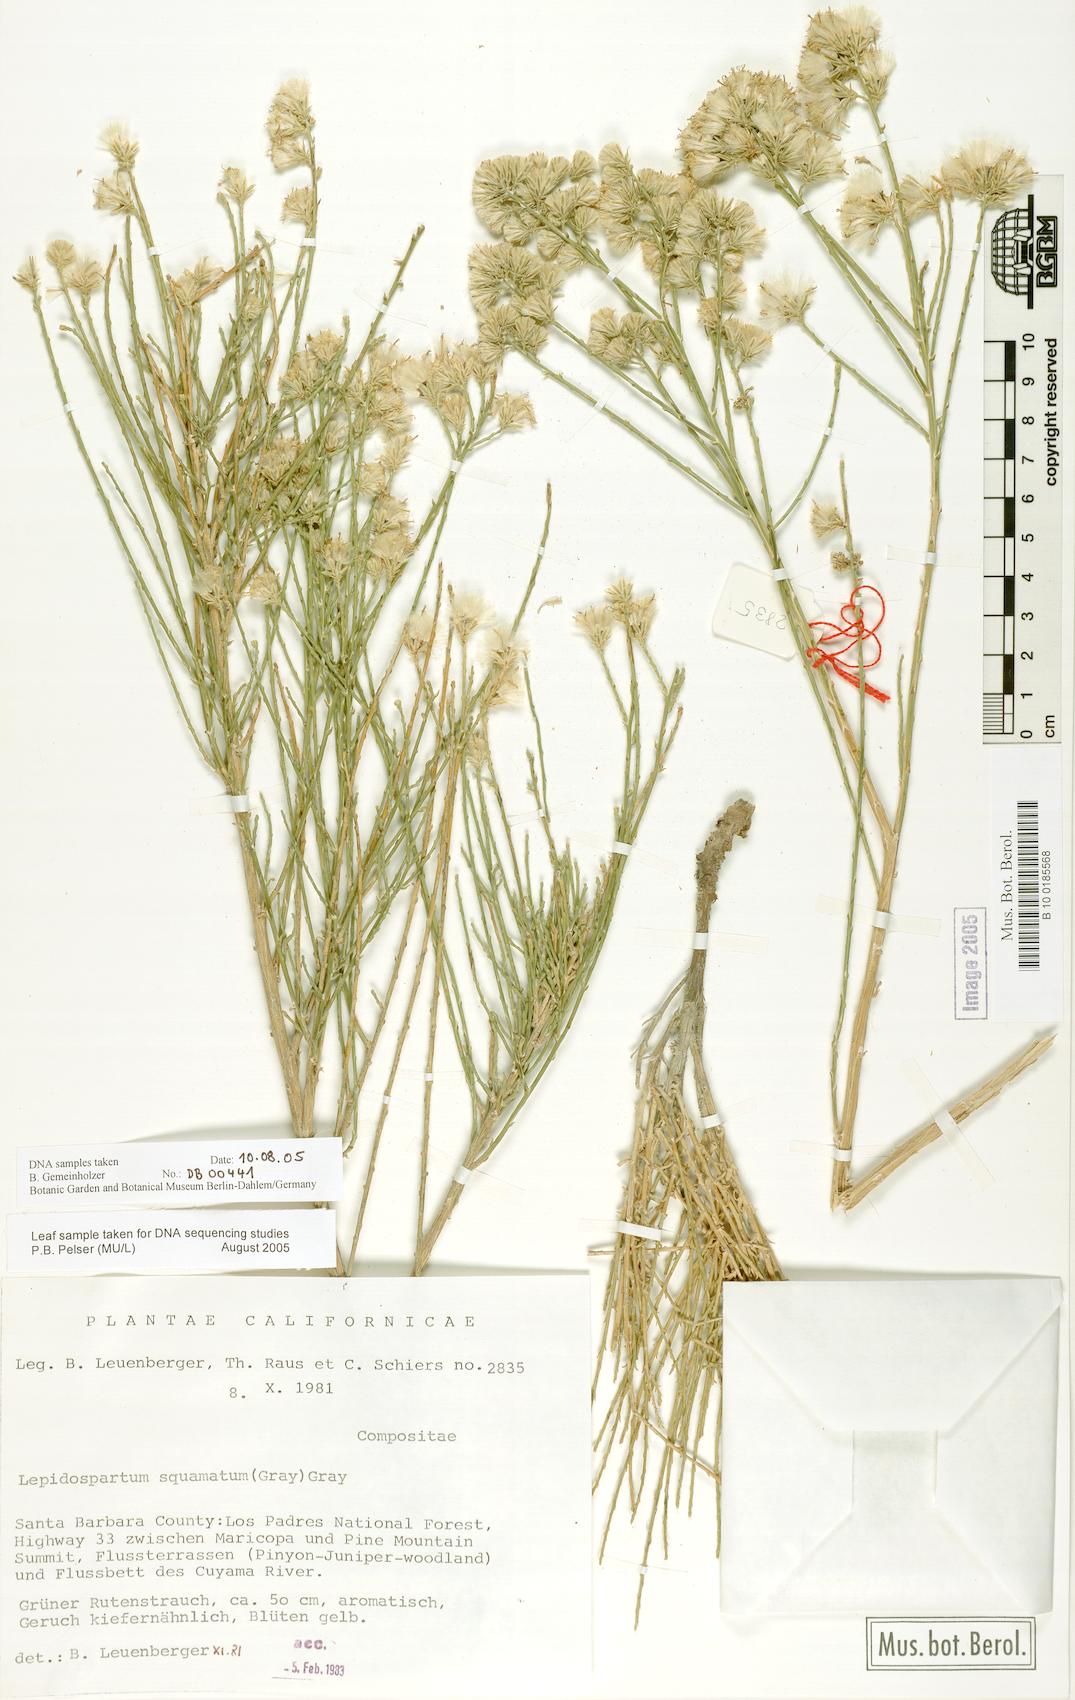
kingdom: Plantae
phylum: Tracheophyta
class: Magnoliopsida
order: Asterales
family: Asteraceae
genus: Lepidospartum
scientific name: Lepidospartum squamatum
